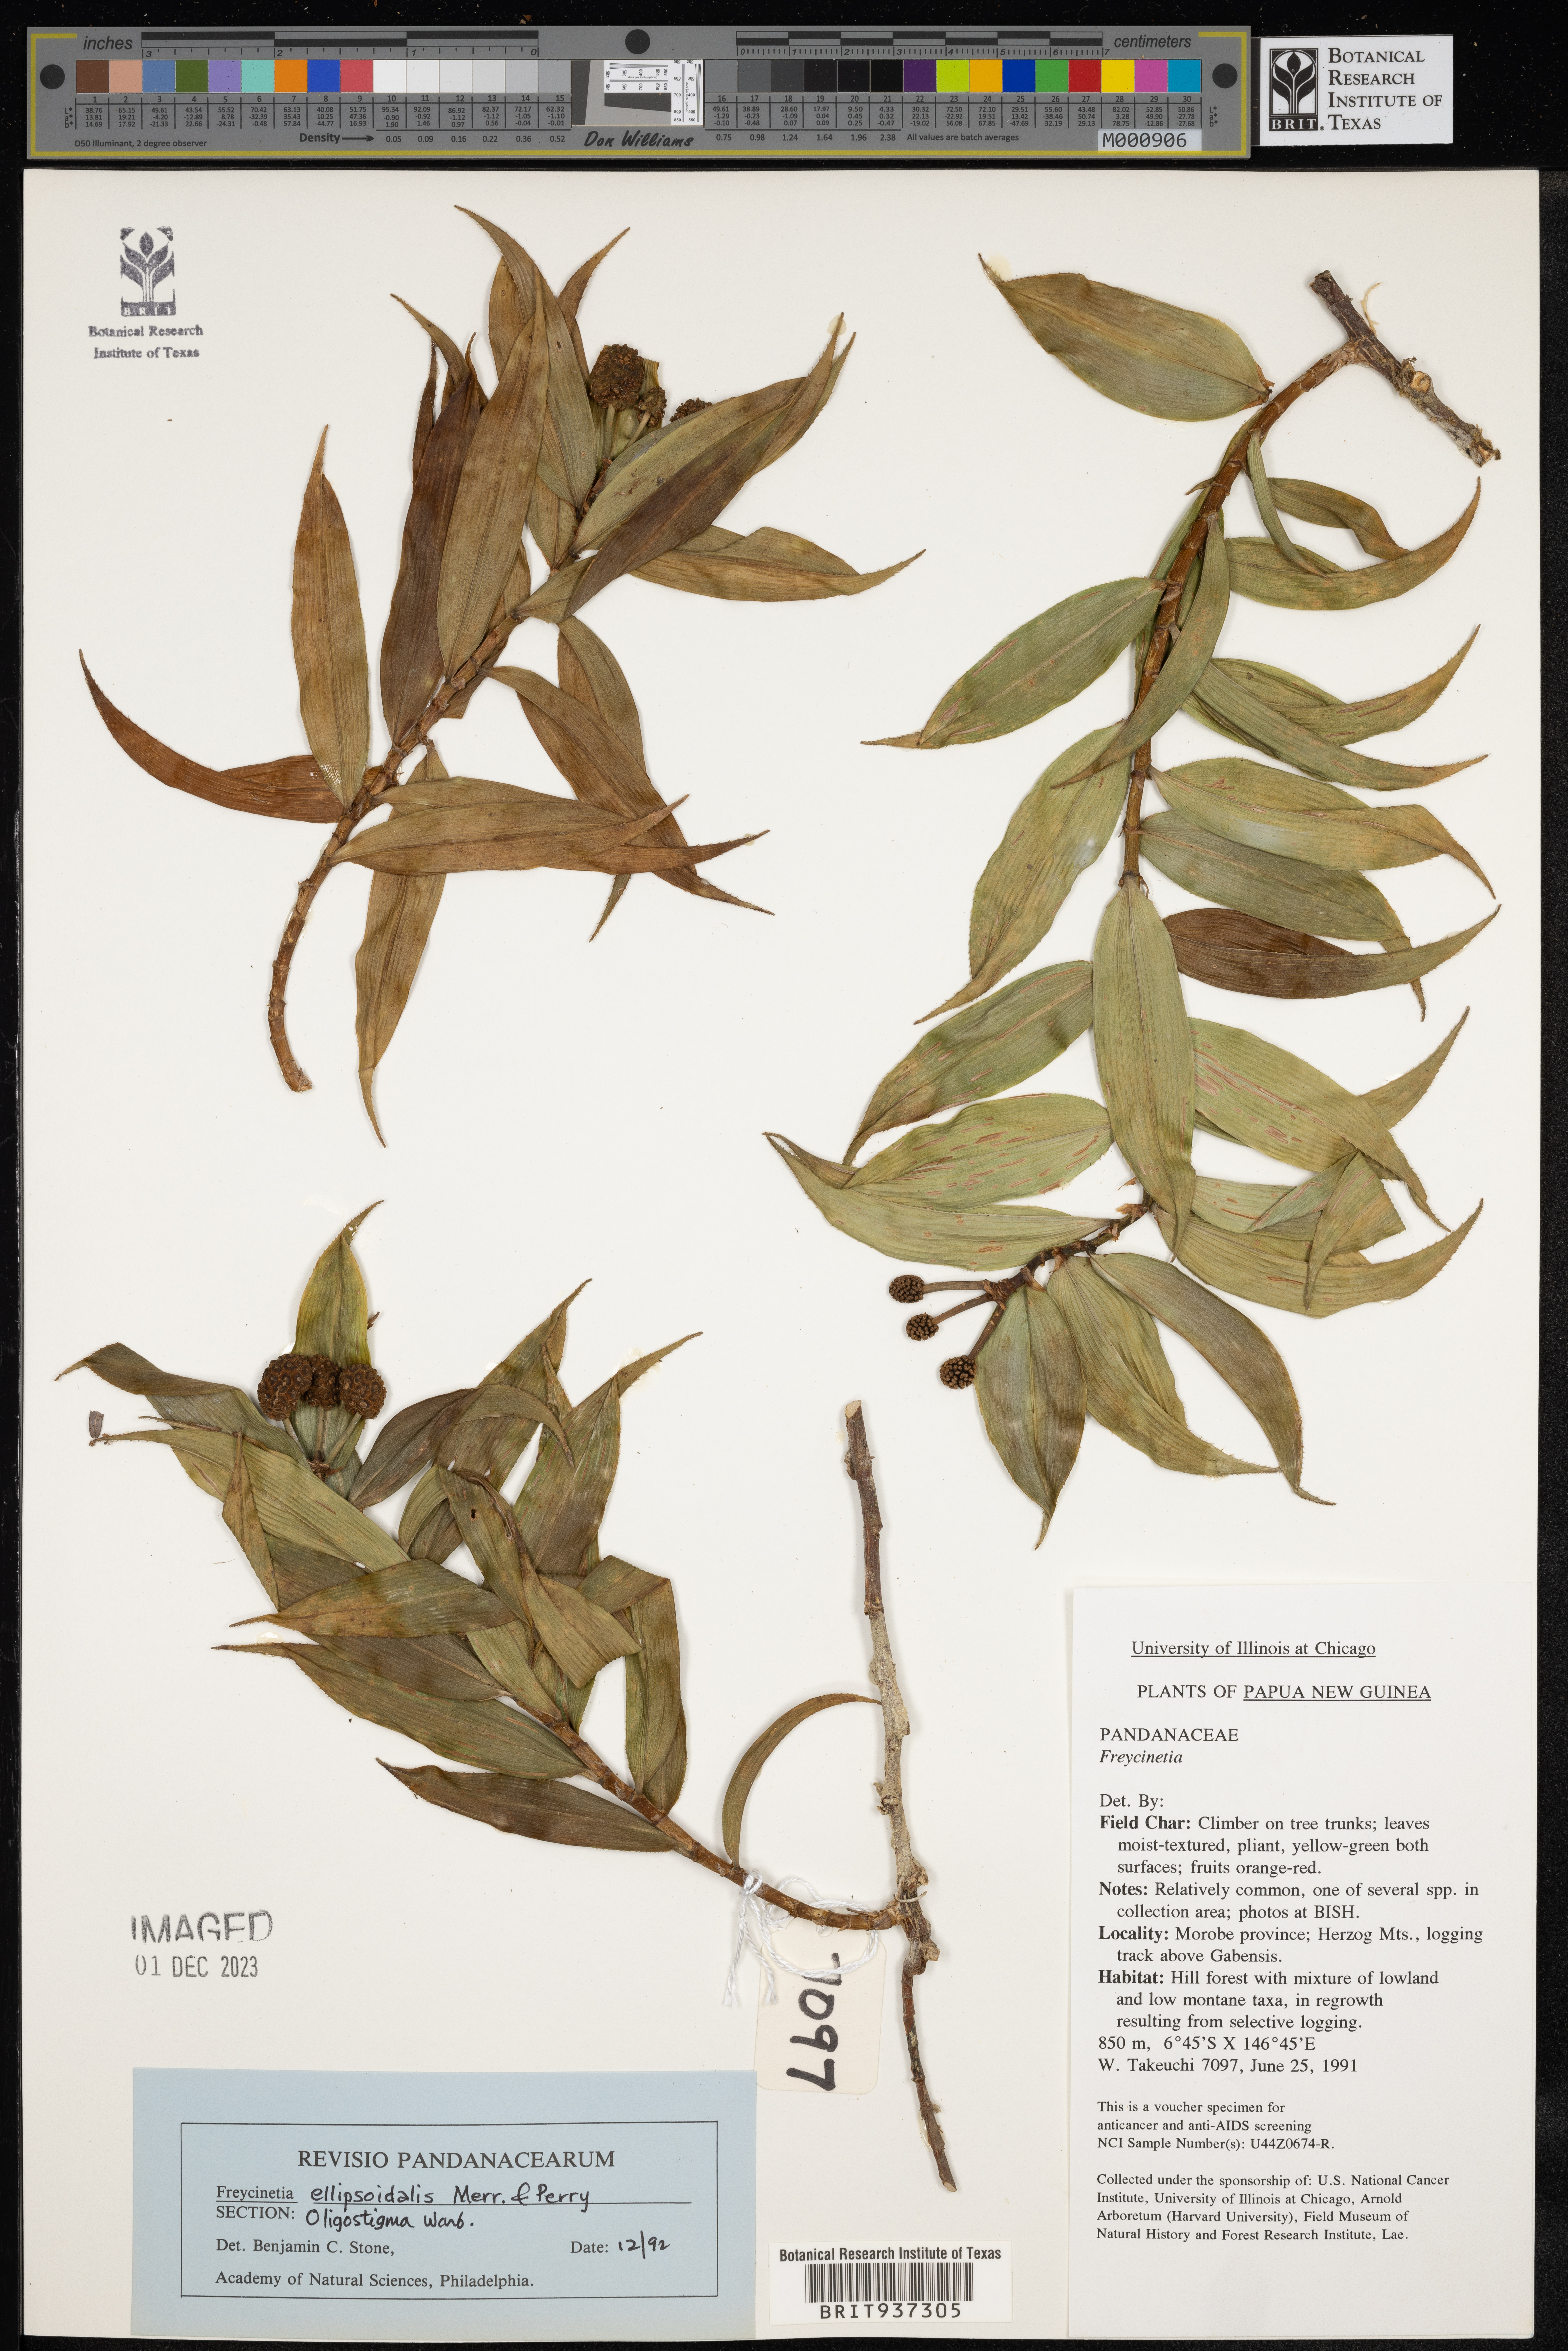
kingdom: Plantae
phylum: Tracheophyta
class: Liliopsida
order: Pandanales
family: Pandanaceae
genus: Freycinetia
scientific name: Freycinetia
